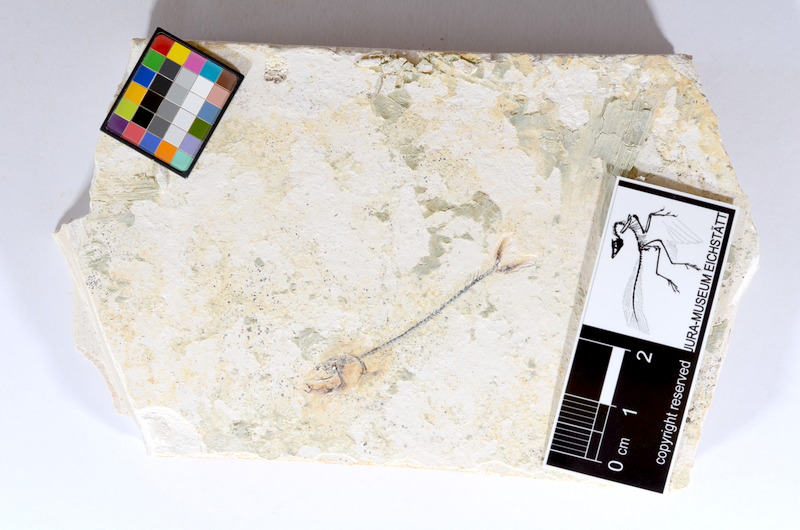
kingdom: Animalia
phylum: Chordata
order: Salmoniformes
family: Orthogonikleithridae
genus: Orthogonikleithrus
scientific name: Orthogonikleithrus hoelli
